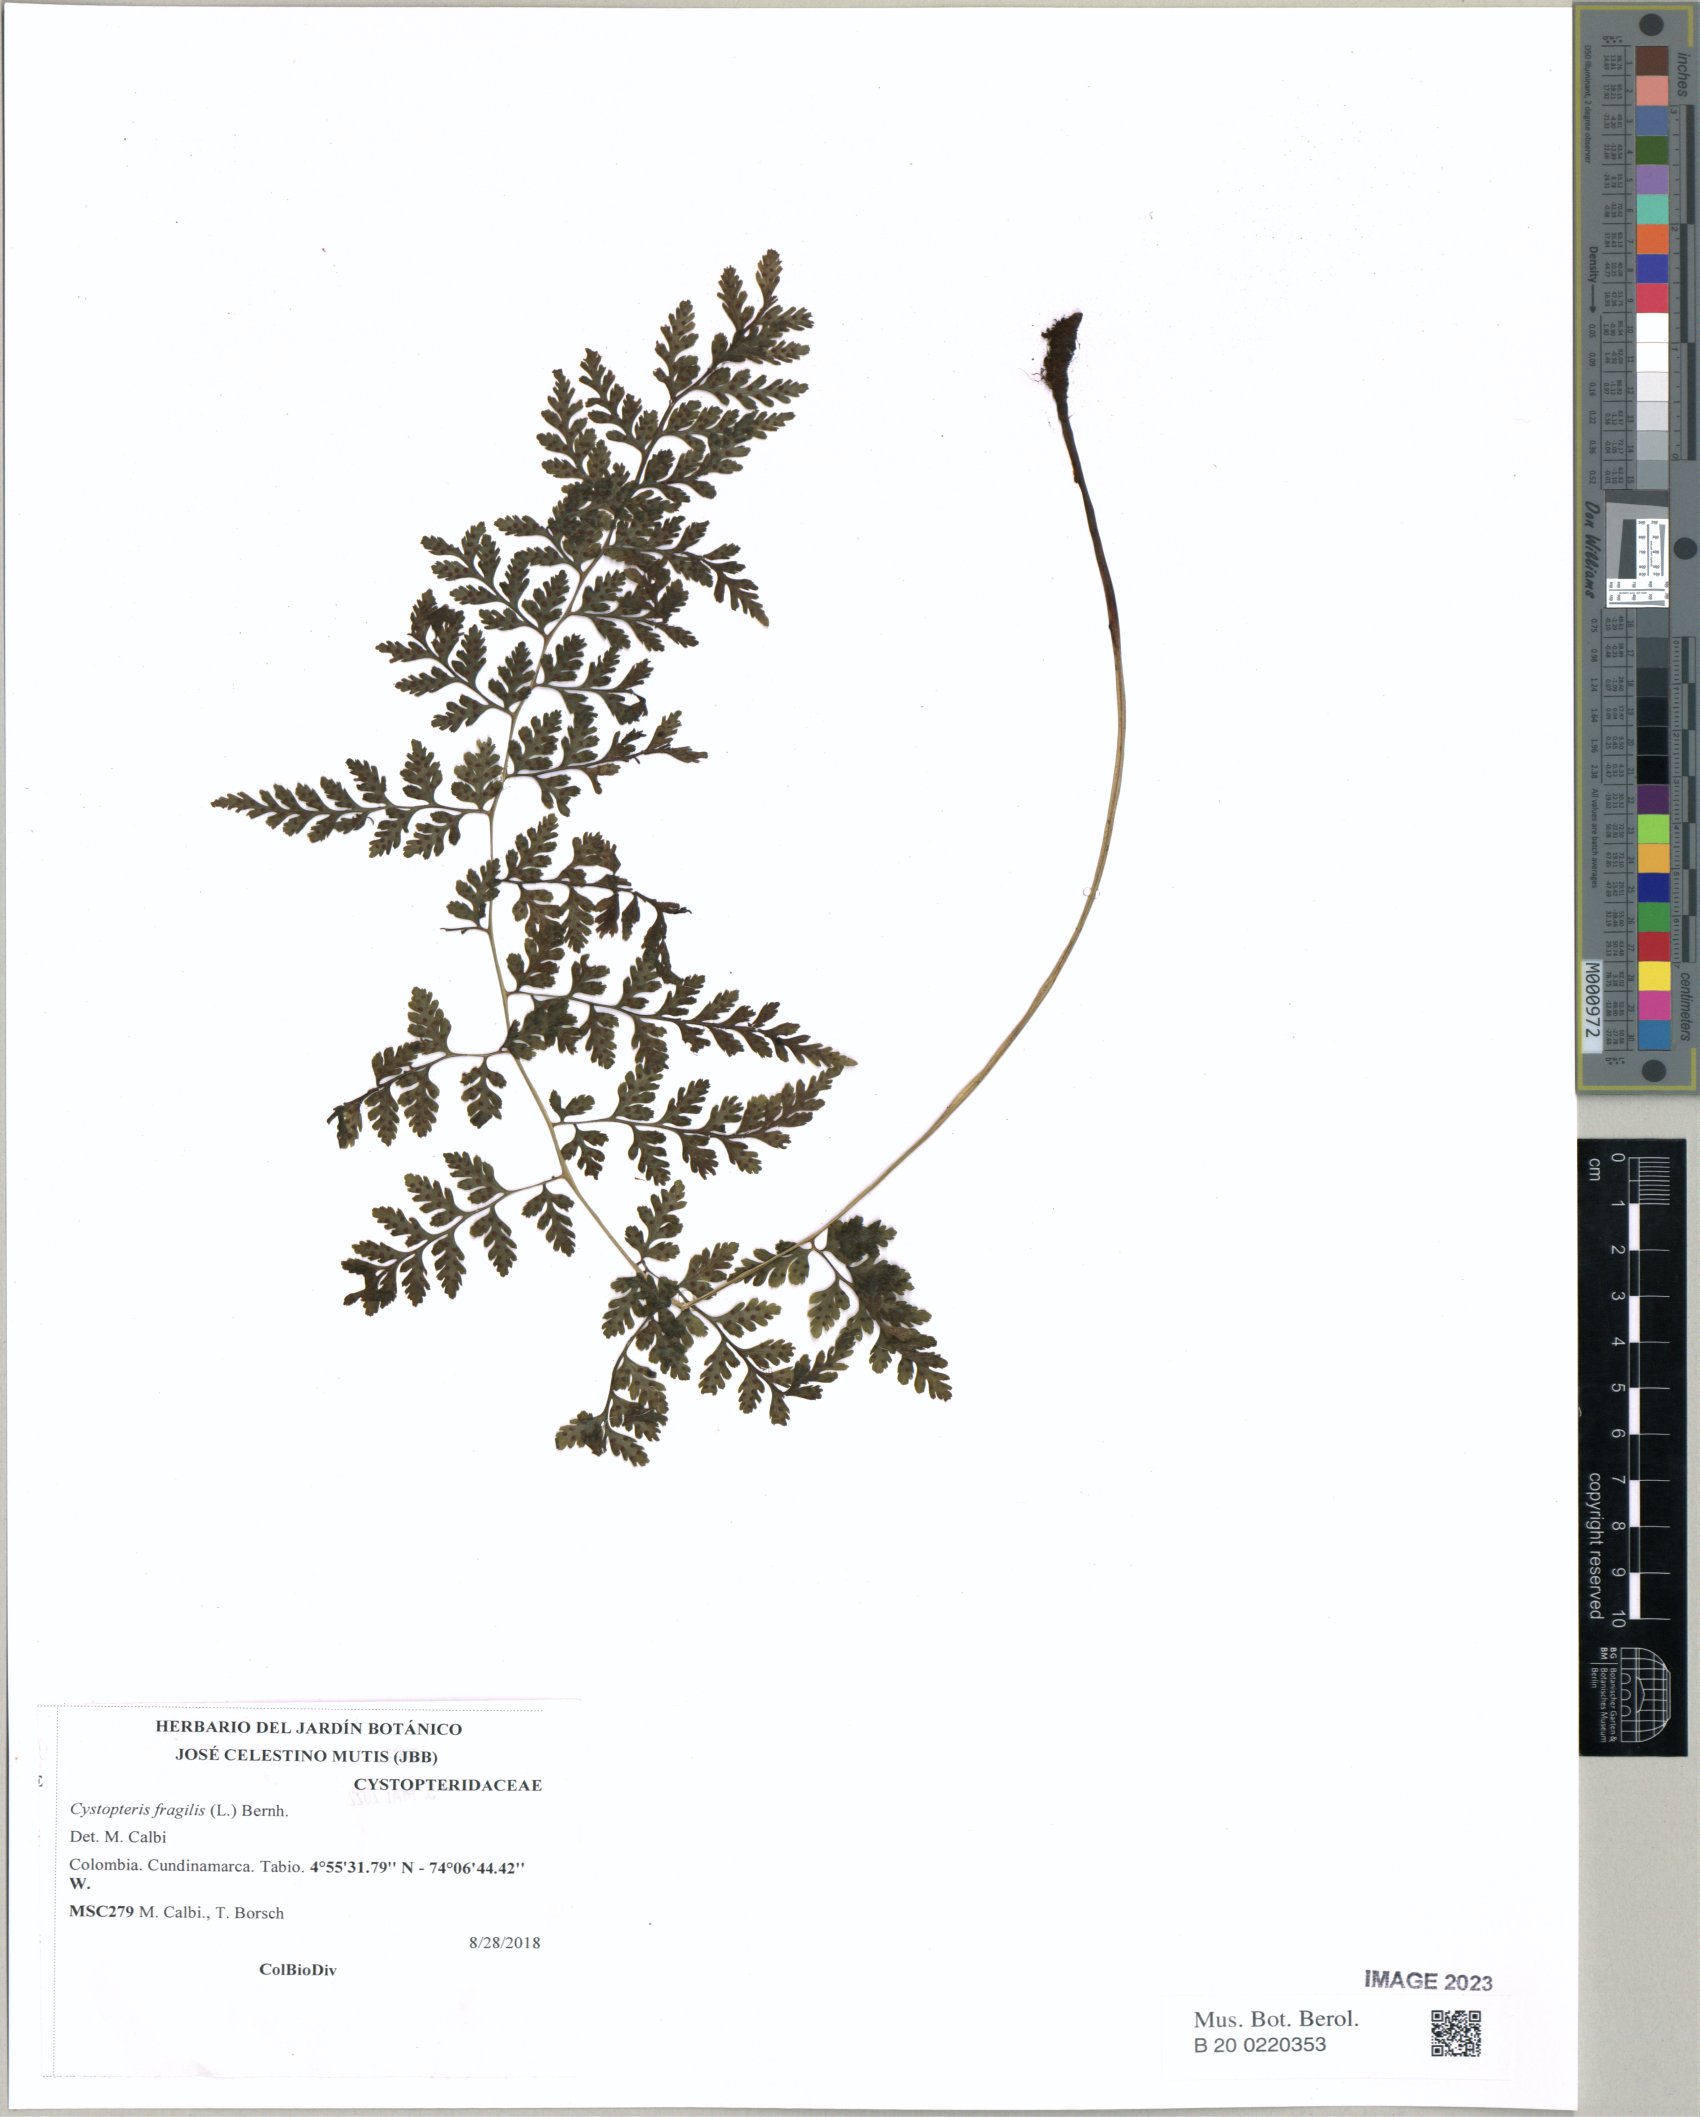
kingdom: Plantae
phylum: Tracheophyta
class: Polypodiopsida
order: Polypodiales
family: Cystopteridaceae
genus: Cystopteris
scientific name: Cystopteris fragilis
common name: Brittle bladder fern
